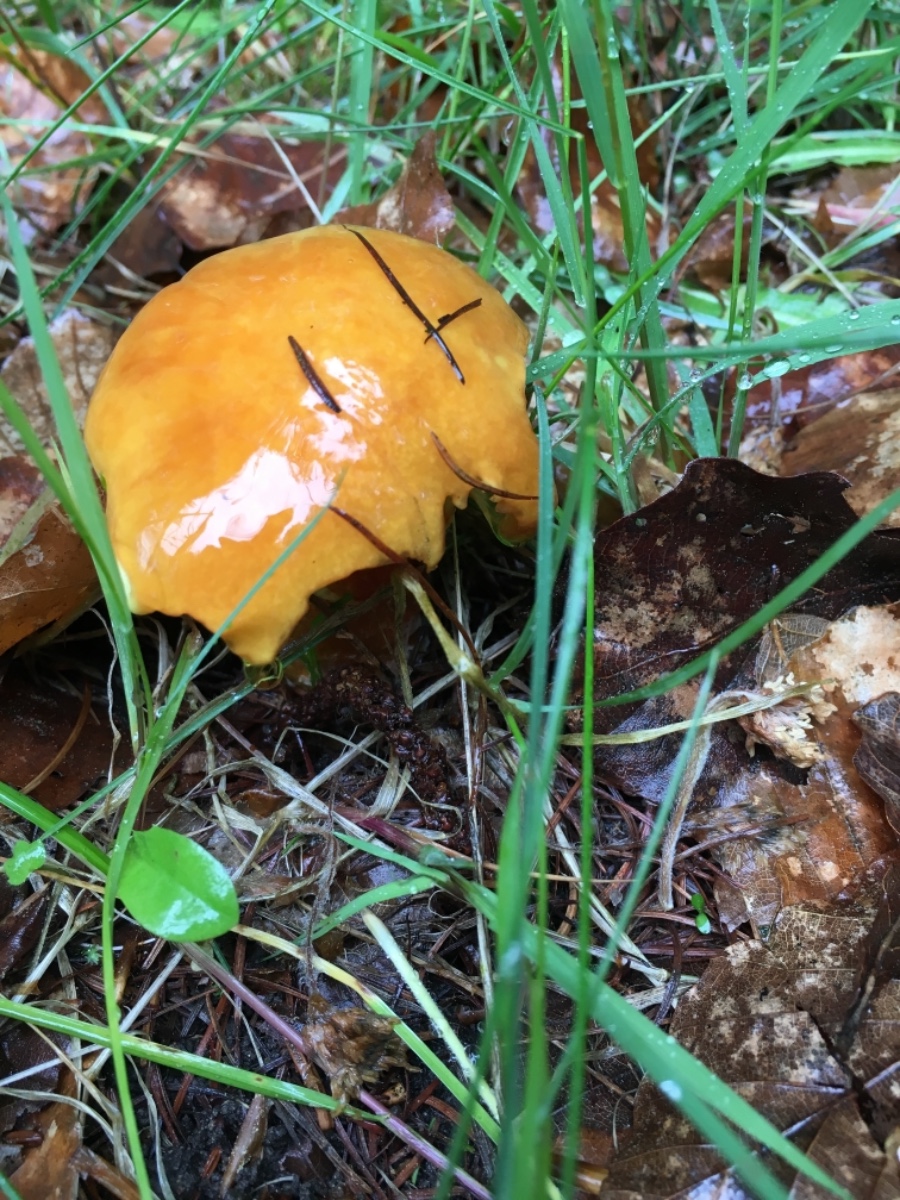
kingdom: Fungi
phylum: Basidiomycota
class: Agaricomycetes
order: Boletales
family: Suillaceae
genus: Suillus
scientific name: Suillus grevillei
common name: lærke-slimrørhat
